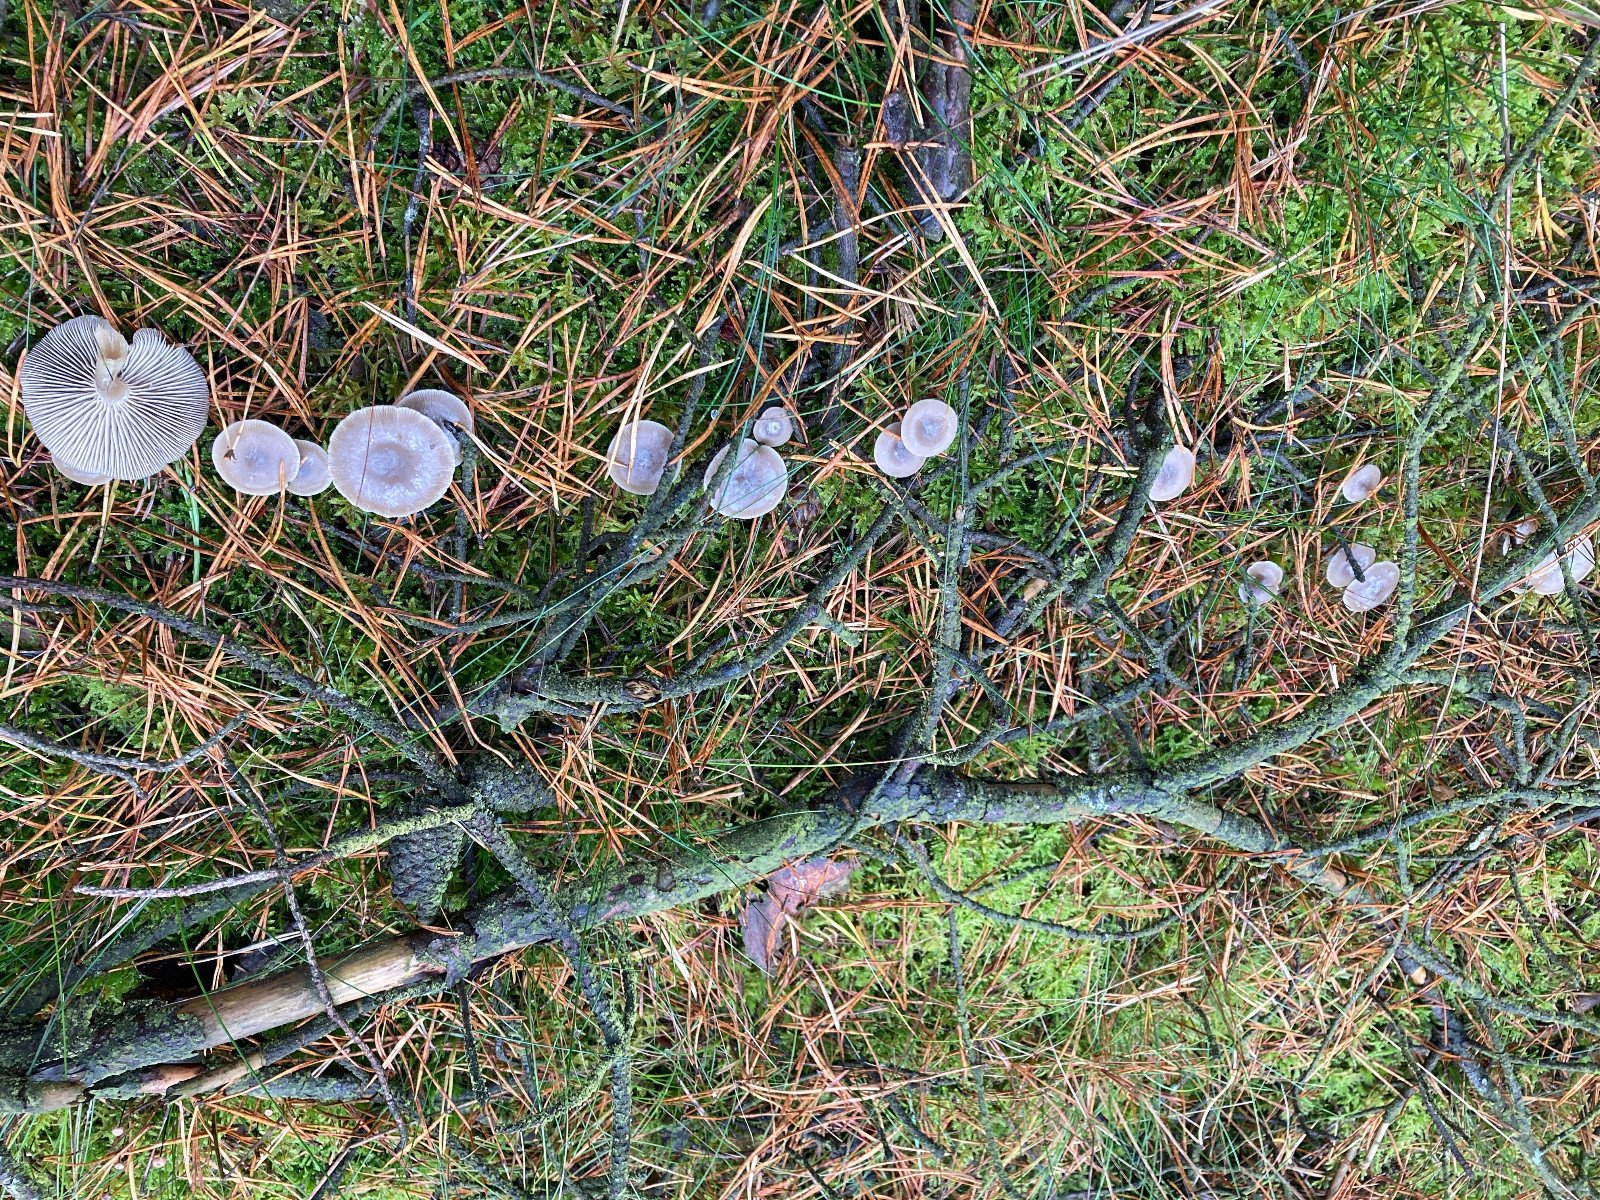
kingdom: Fungi
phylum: Basidiomycota
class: Agaricomycetes
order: Agaricales
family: Tricholomataceae
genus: Clitocybe
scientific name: Clitocybe vibecina
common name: randstribet tragthat
